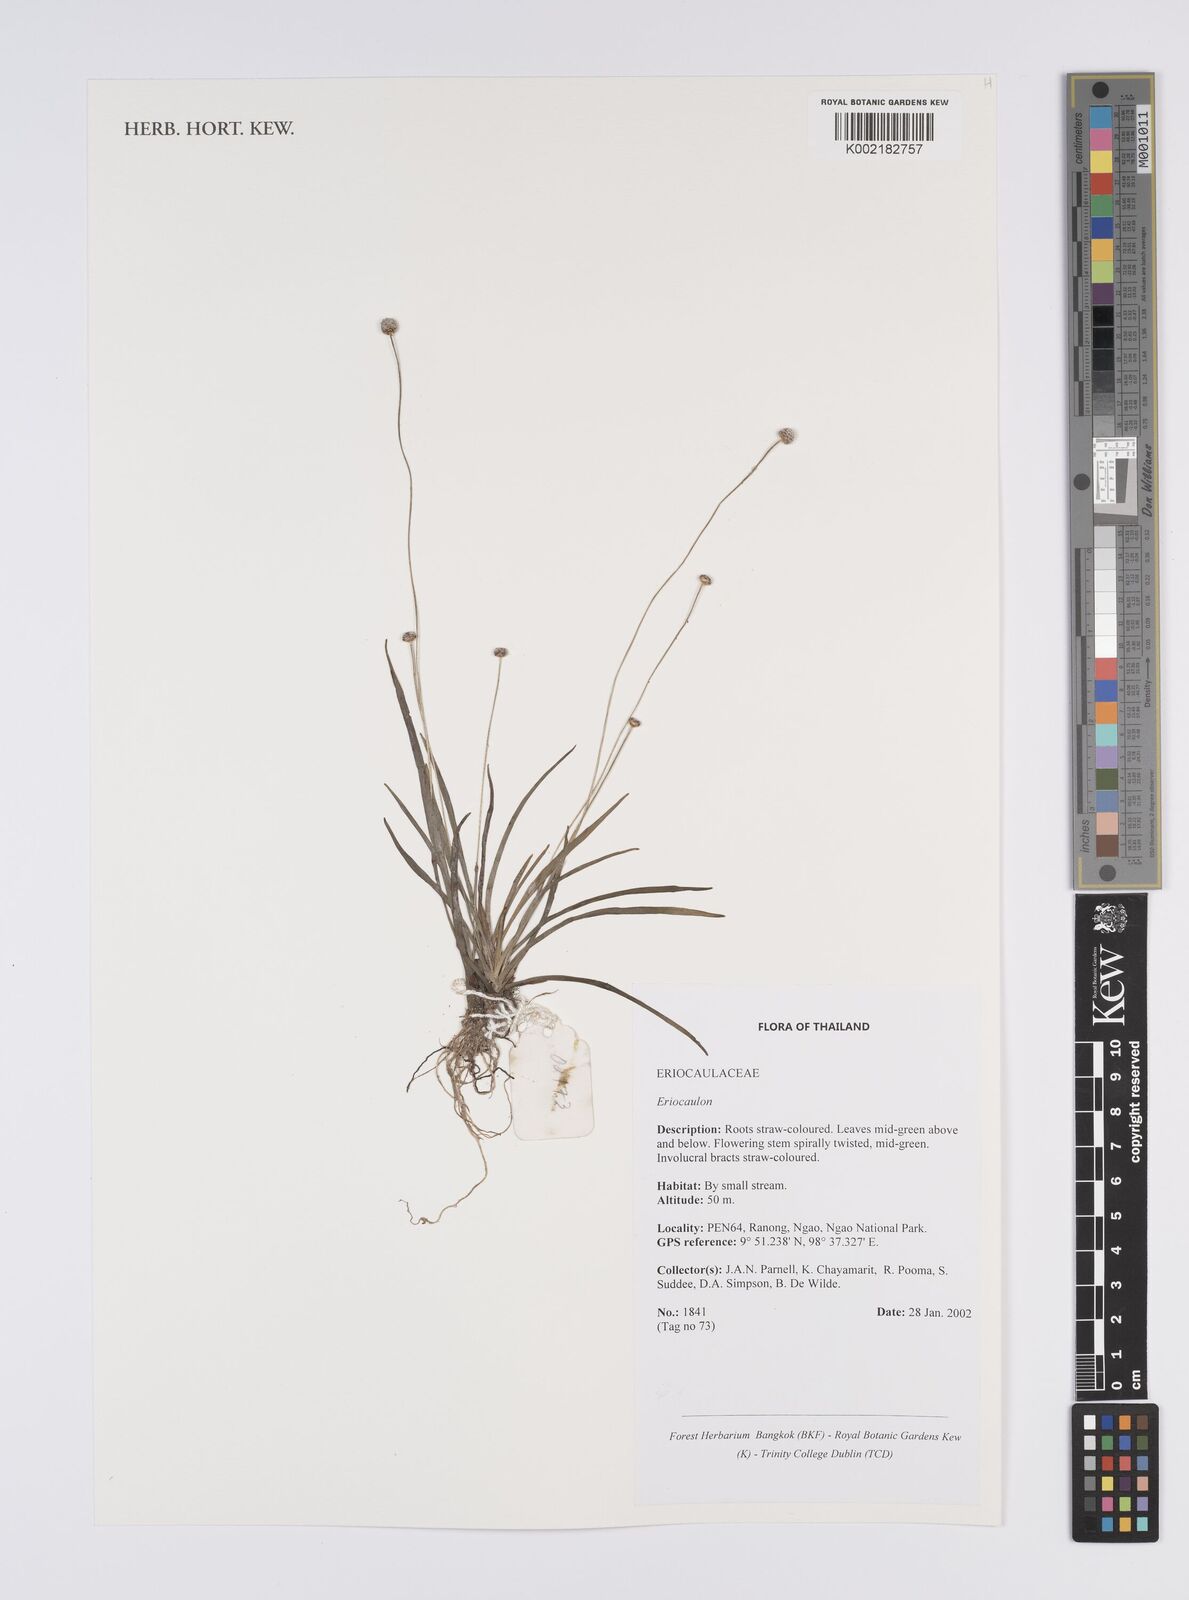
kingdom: Plantae
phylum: Tracheophyta
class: Liliopsida
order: Poales
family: Eriocaulaceae
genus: Eriocaulon
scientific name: Eriocaulon
